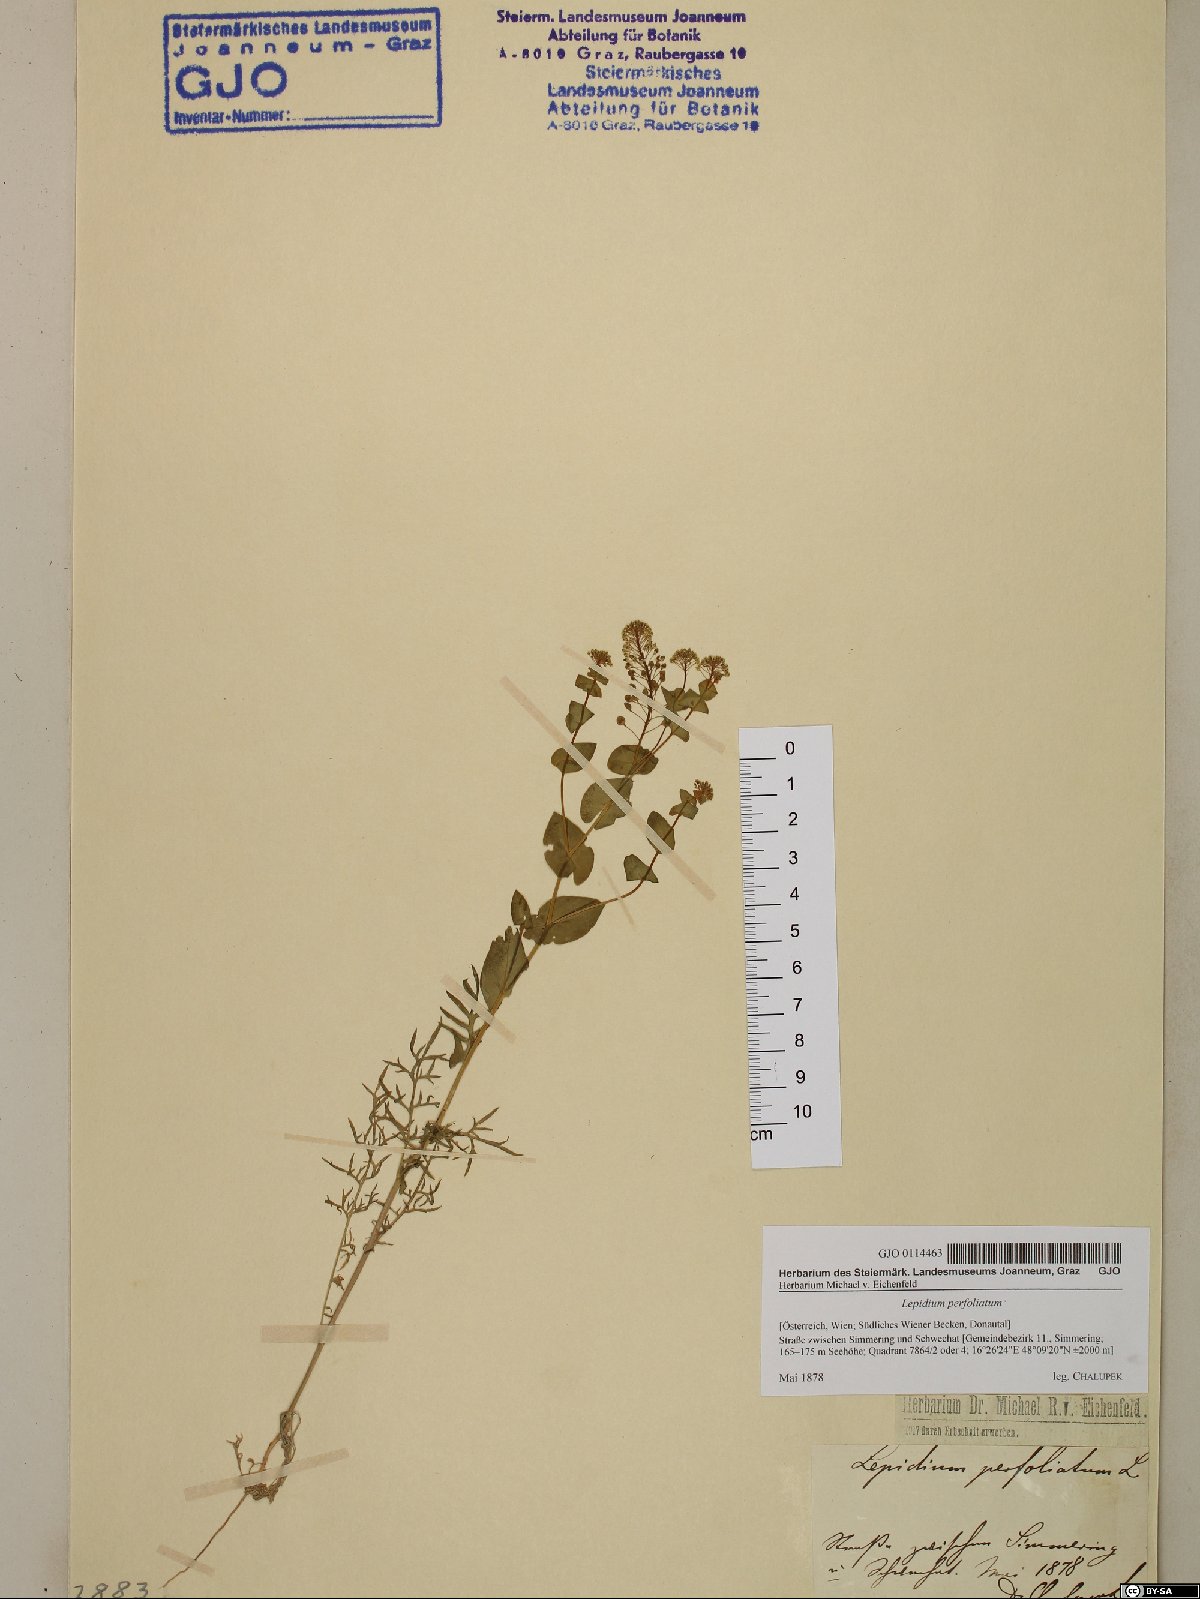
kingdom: Plantae
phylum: Tracheophyta
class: Magnoliopsida
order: Brassicales
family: Brassicaceae
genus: Lepidium
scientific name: Lepidium perfoliatum
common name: Perfoliate pepperwort
